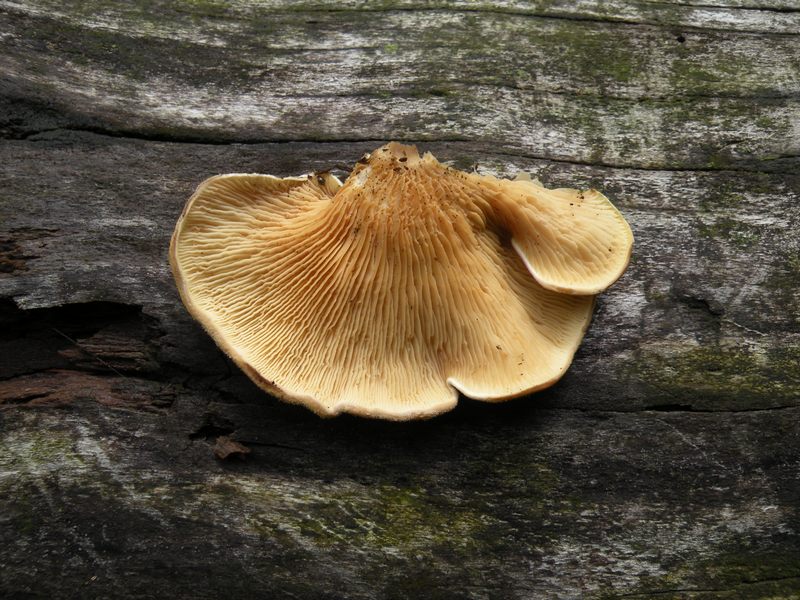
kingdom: Fungi
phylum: Basidiomycota
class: Agaricomycetes
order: Boletales
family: Tapinellaceae
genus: Tapinella
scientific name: Tapinella panuoides
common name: tømmer-viftesvamp
